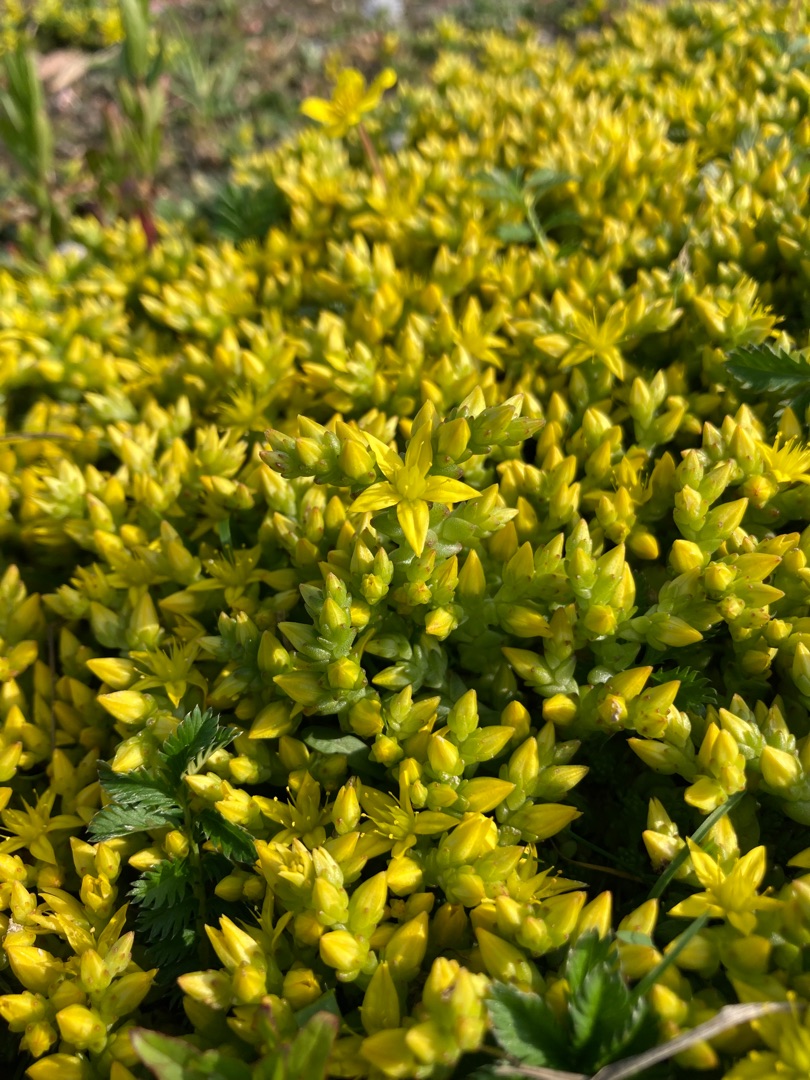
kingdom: Plantae
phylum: Tracheophyta
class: Magnoliopsida
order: Saxifragales
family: Crassulaceae
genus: Sedum
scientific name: Sedum acre
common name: Bidende stenurt
